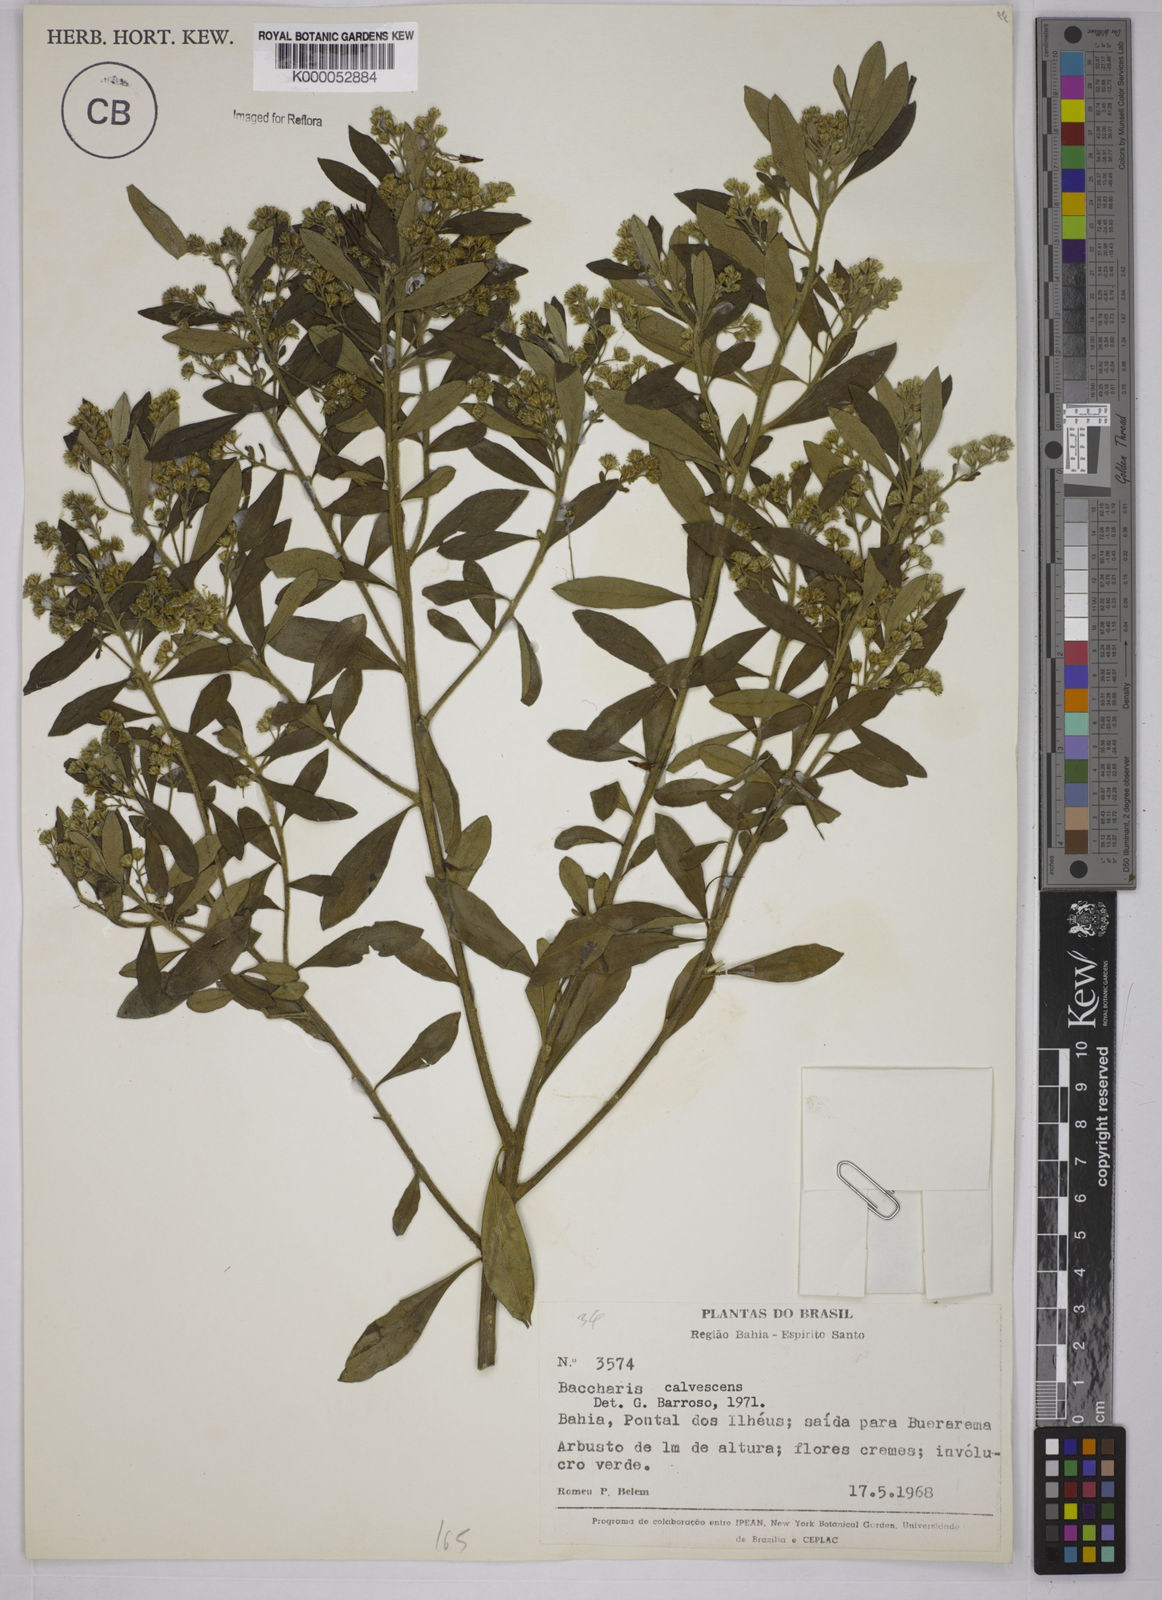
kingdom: Plantae
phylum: Tracheophyta
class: Magnoliopsida
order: Asterales
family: Asteraceae
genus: Baccharis
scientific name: Baccharis calvescens
